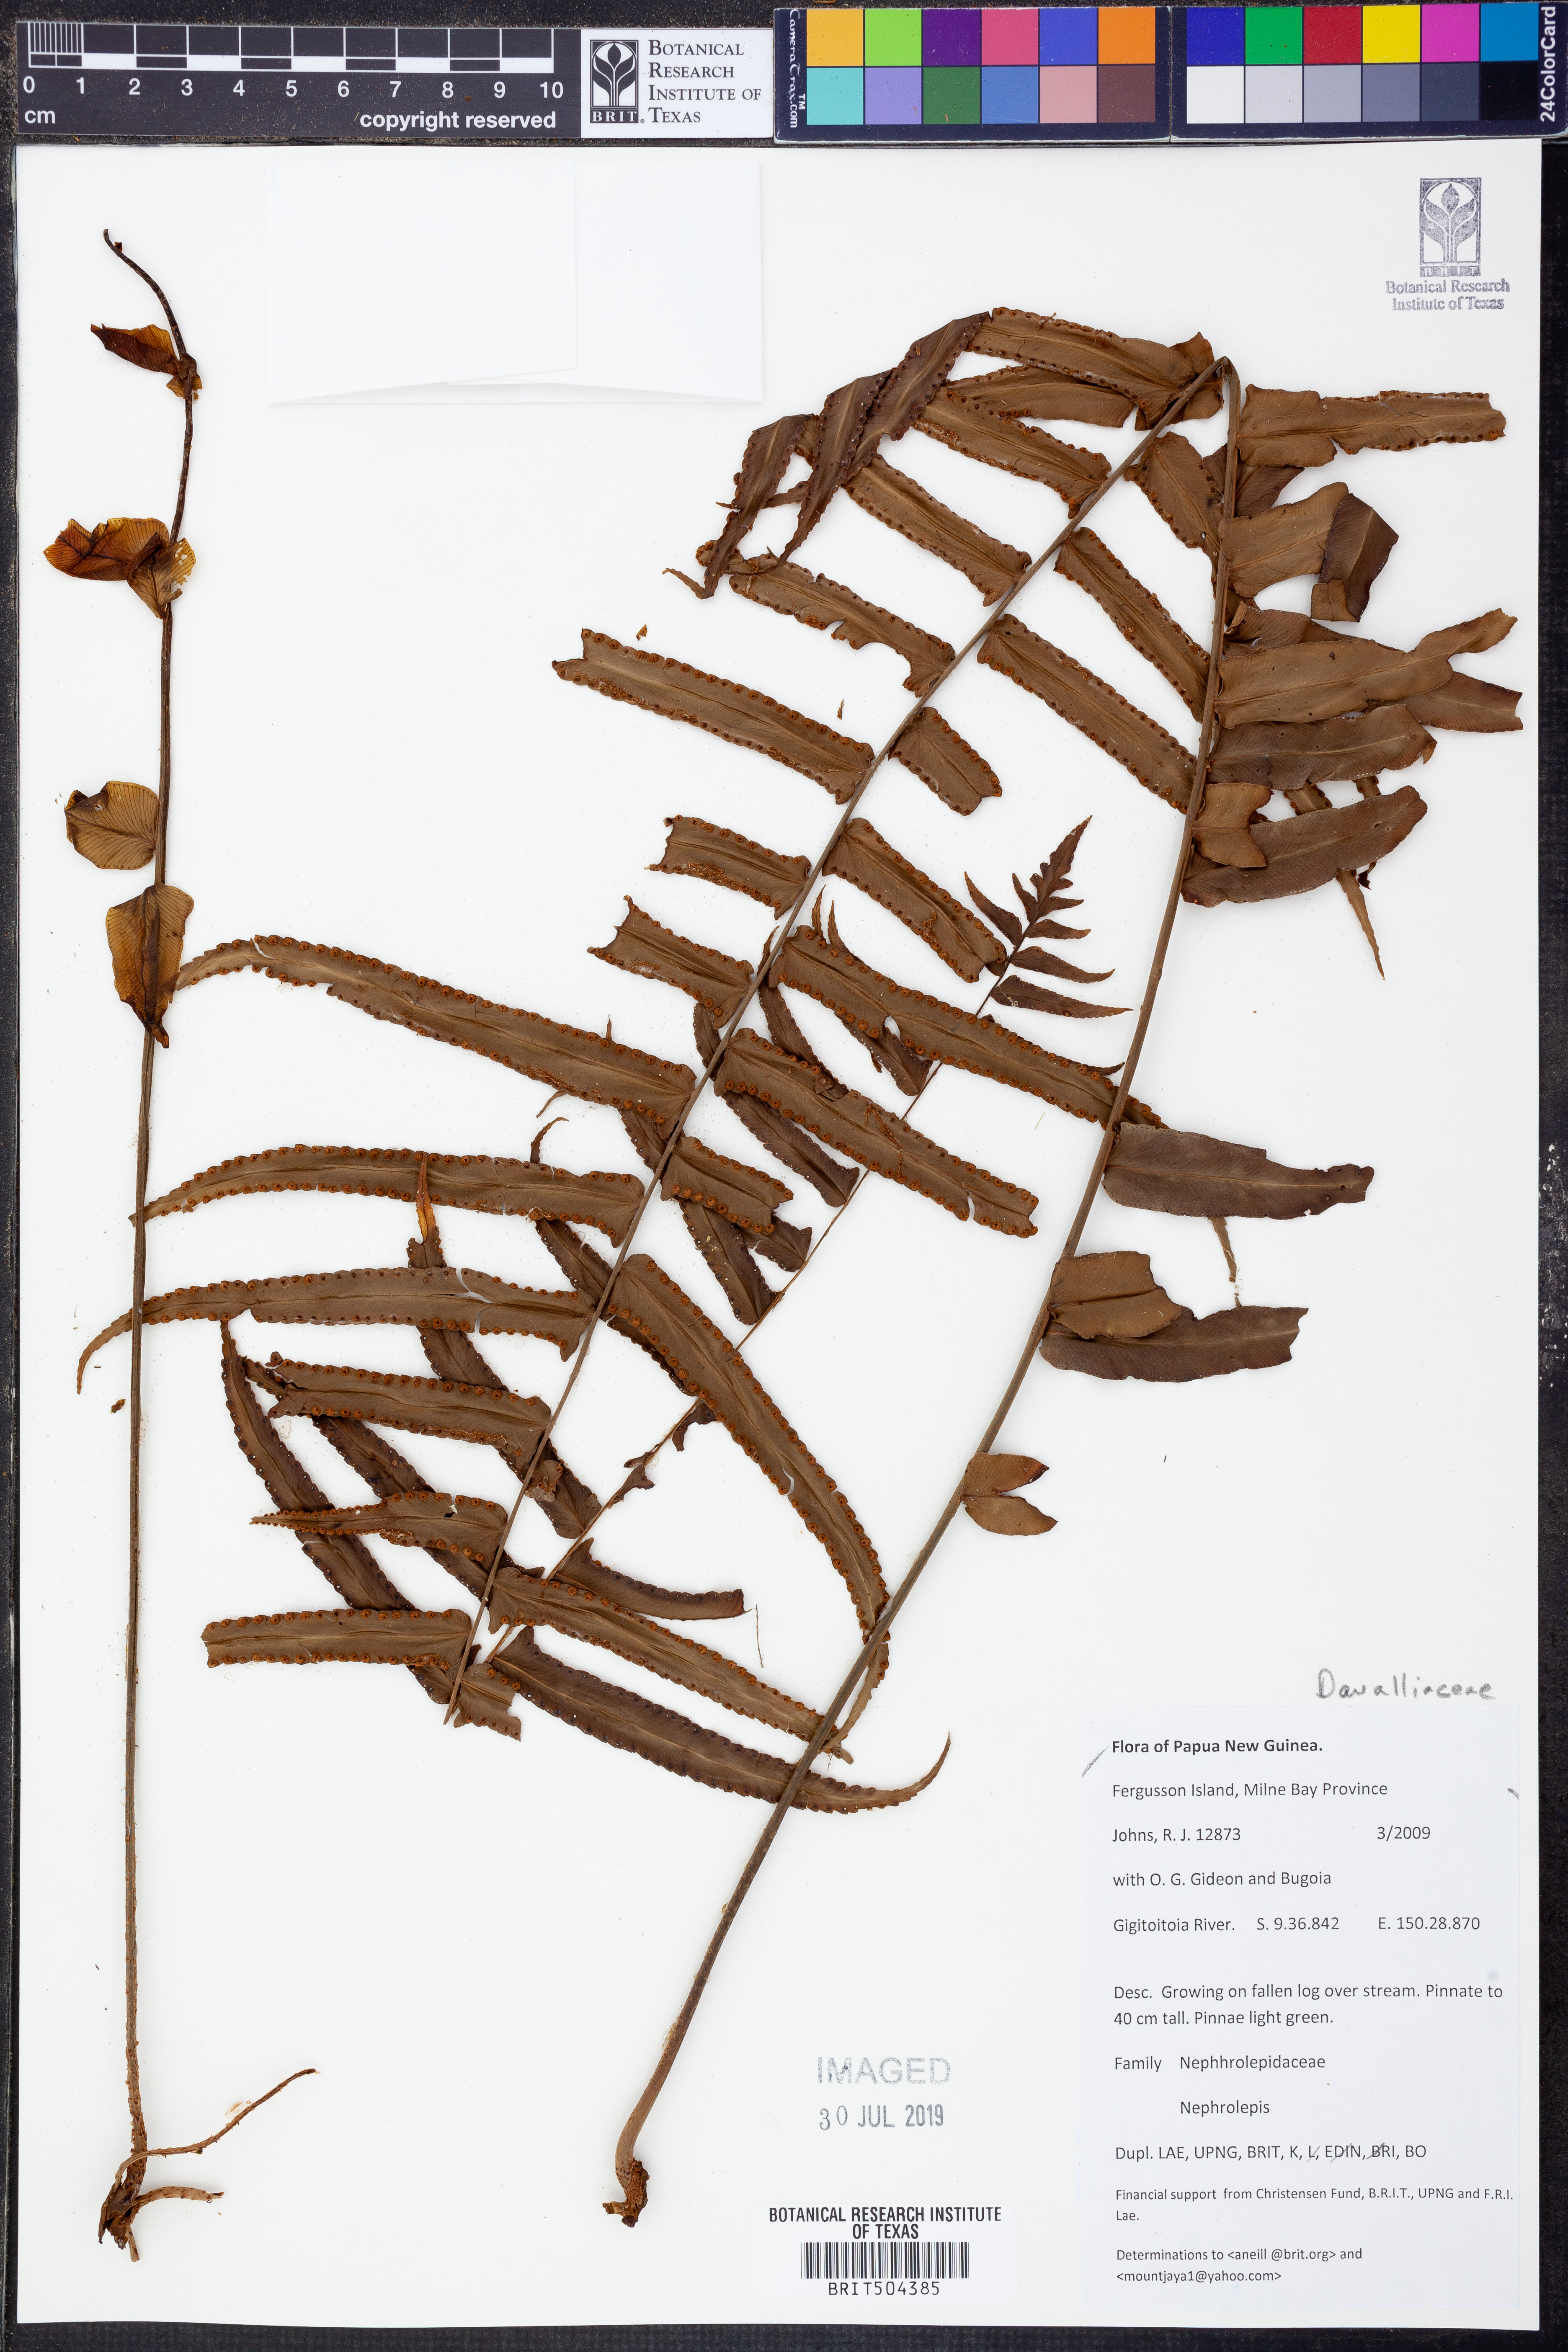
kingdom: Plantae
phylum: Tracheophyta
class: Polypodiopsida
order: Polypodiales
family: Nephrolepidaceae
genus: Nephrolepis
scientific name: Nephrolepis
